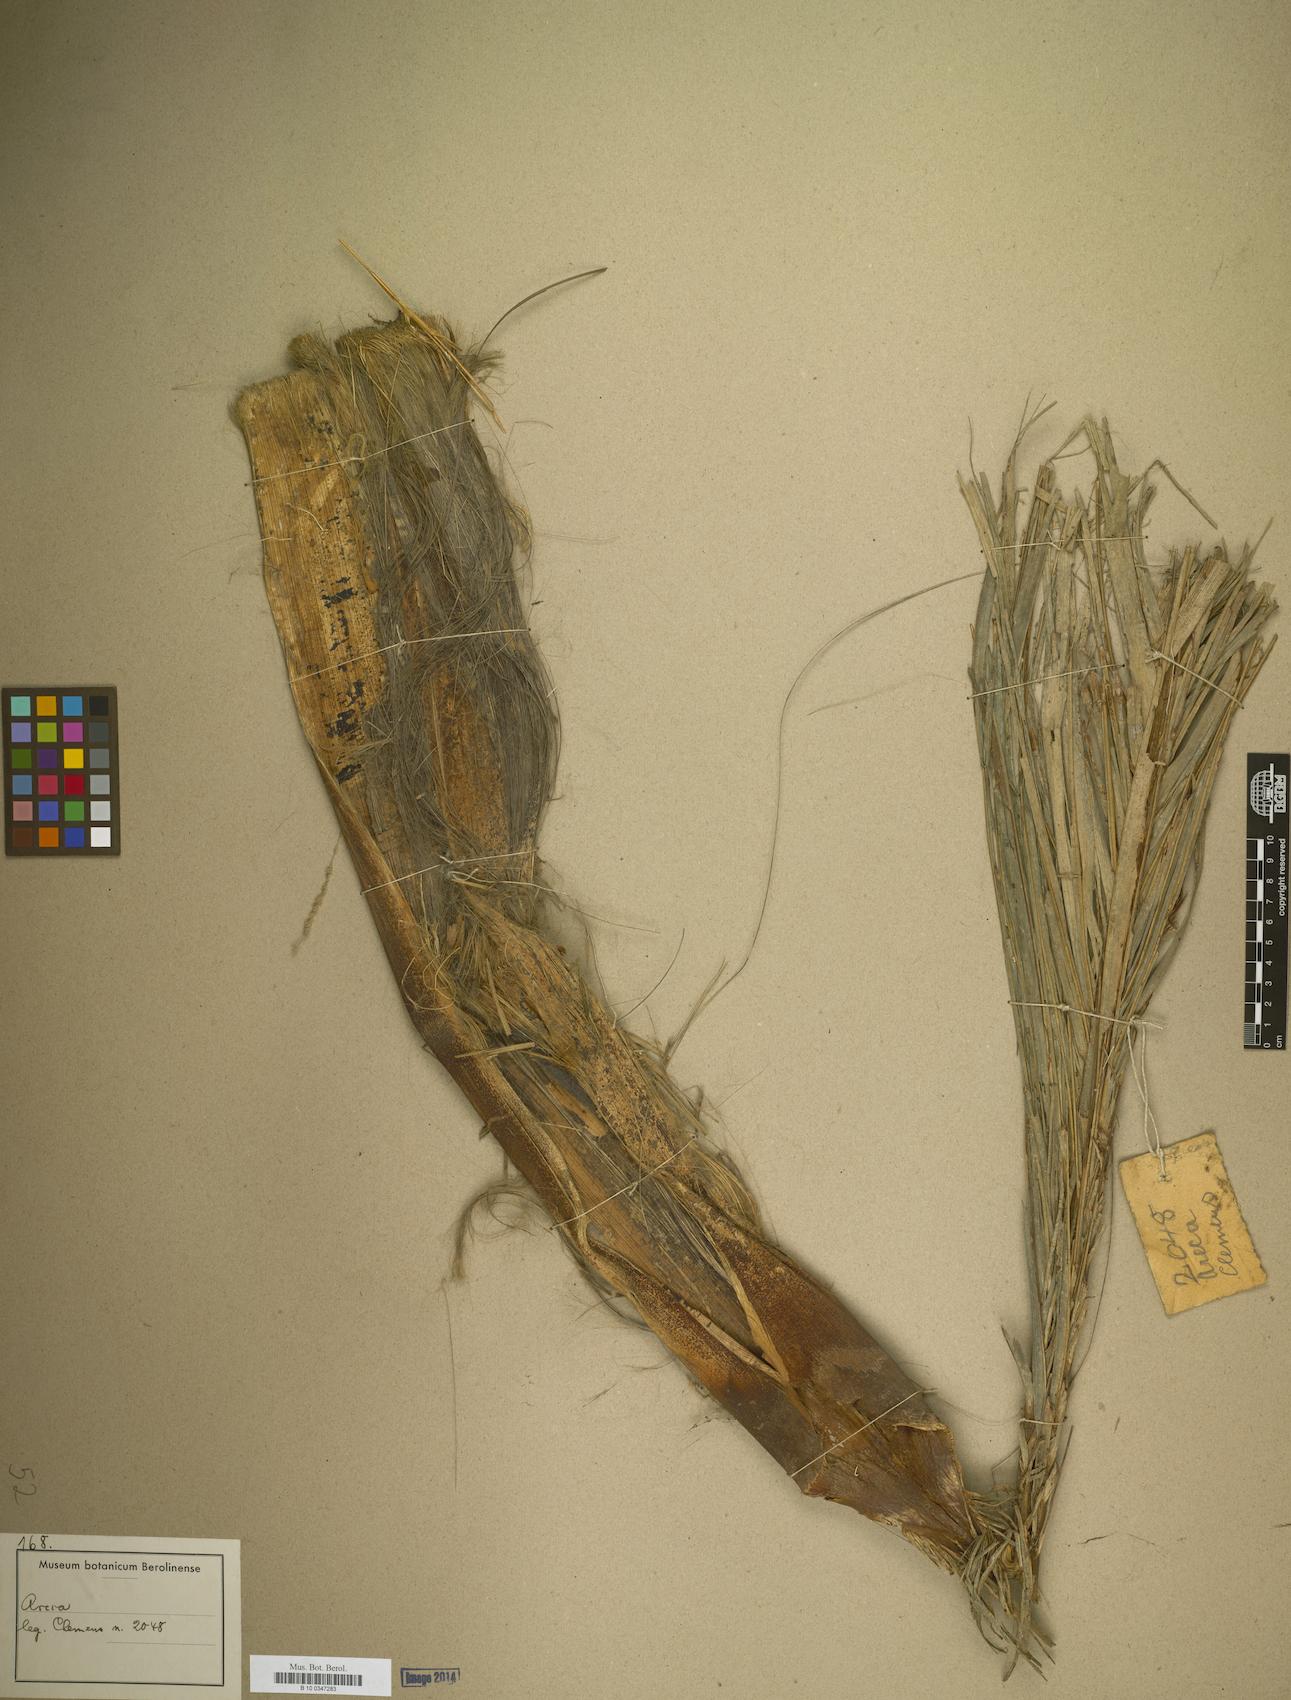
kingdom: Plantae
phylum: Tracheophyta
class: Liliopsida
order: Arecales
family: Arecaceae
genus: Areca
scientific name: Areca
